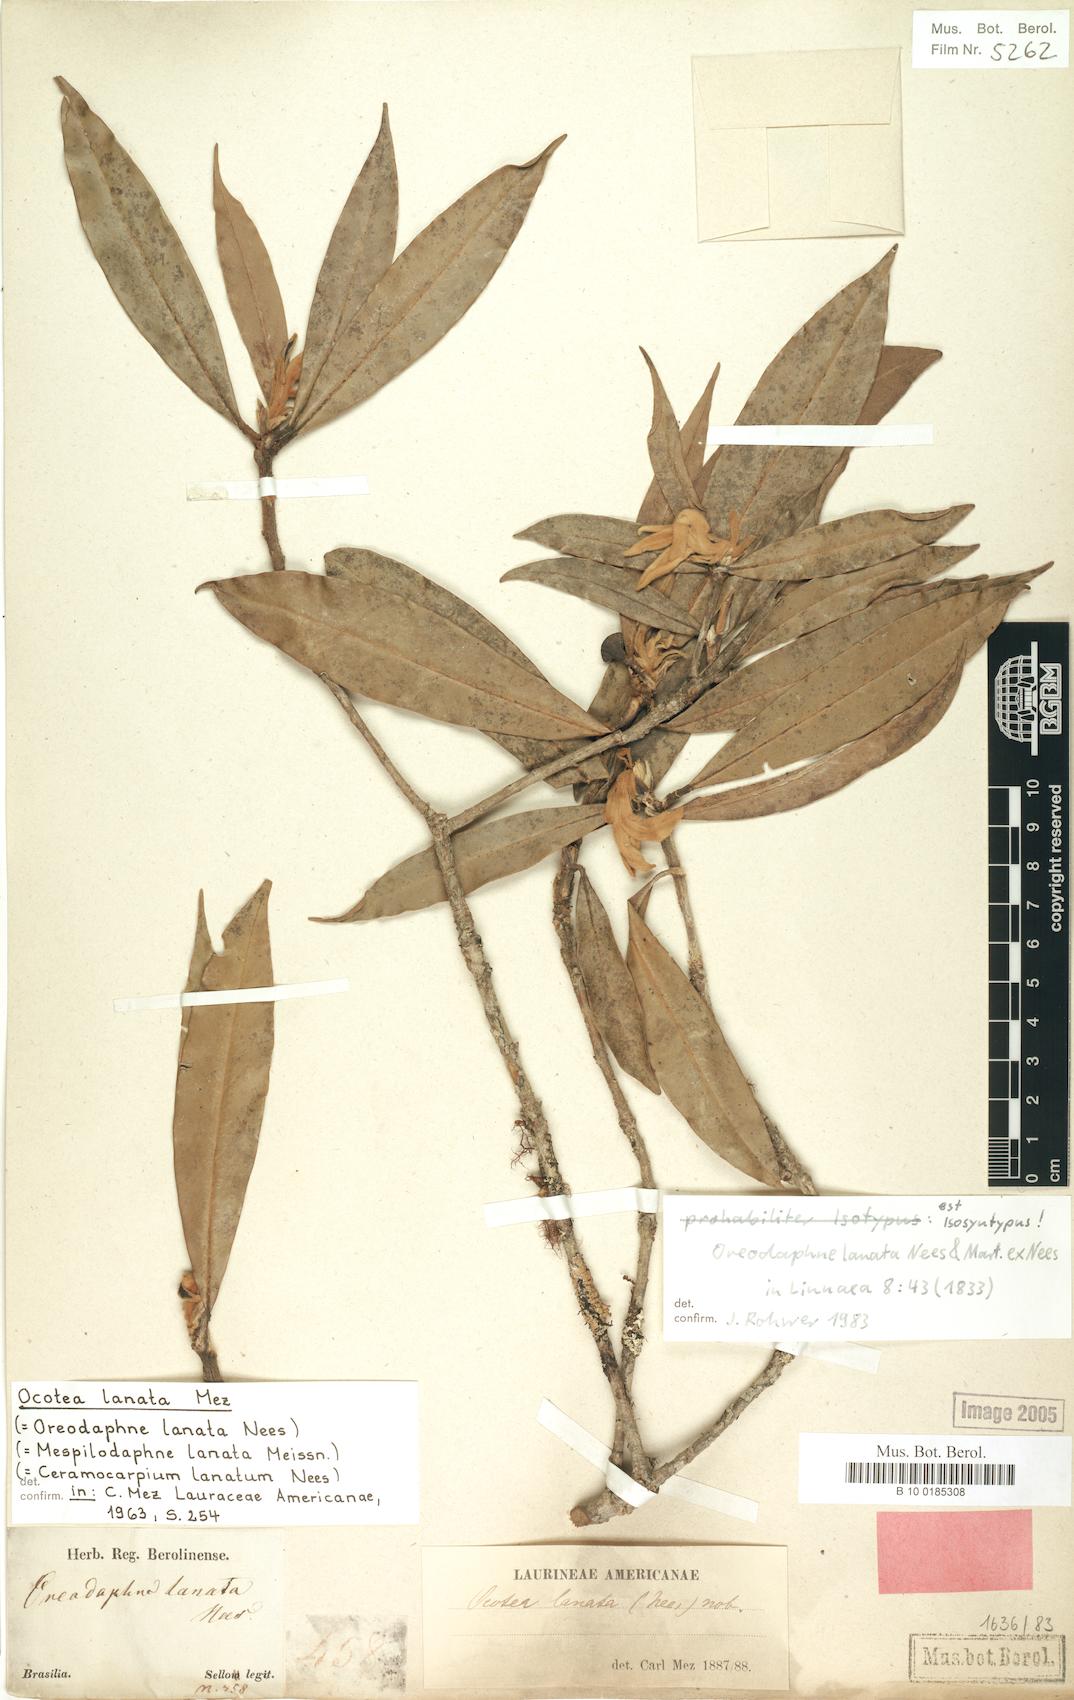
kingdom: Plantae
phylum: Tracheophyta
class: Magnoliopsida
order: Laurales
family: Lauraceae
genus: Ocotea
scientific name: Ocotea lanata
